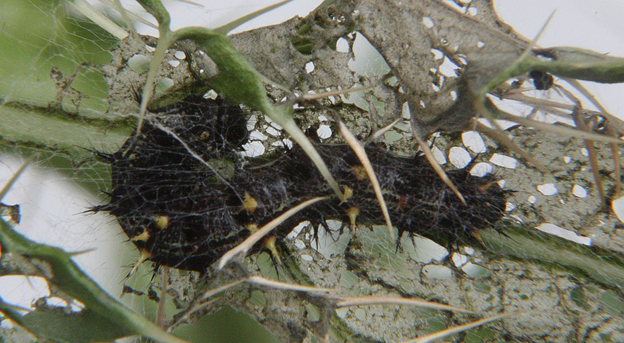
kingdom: Animalia
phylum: Arthropoda
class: Insecta
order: Lepidoptera
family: Nymphalidae
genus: Vanessa
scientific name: Vanessa cardui
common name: Painted Lady
